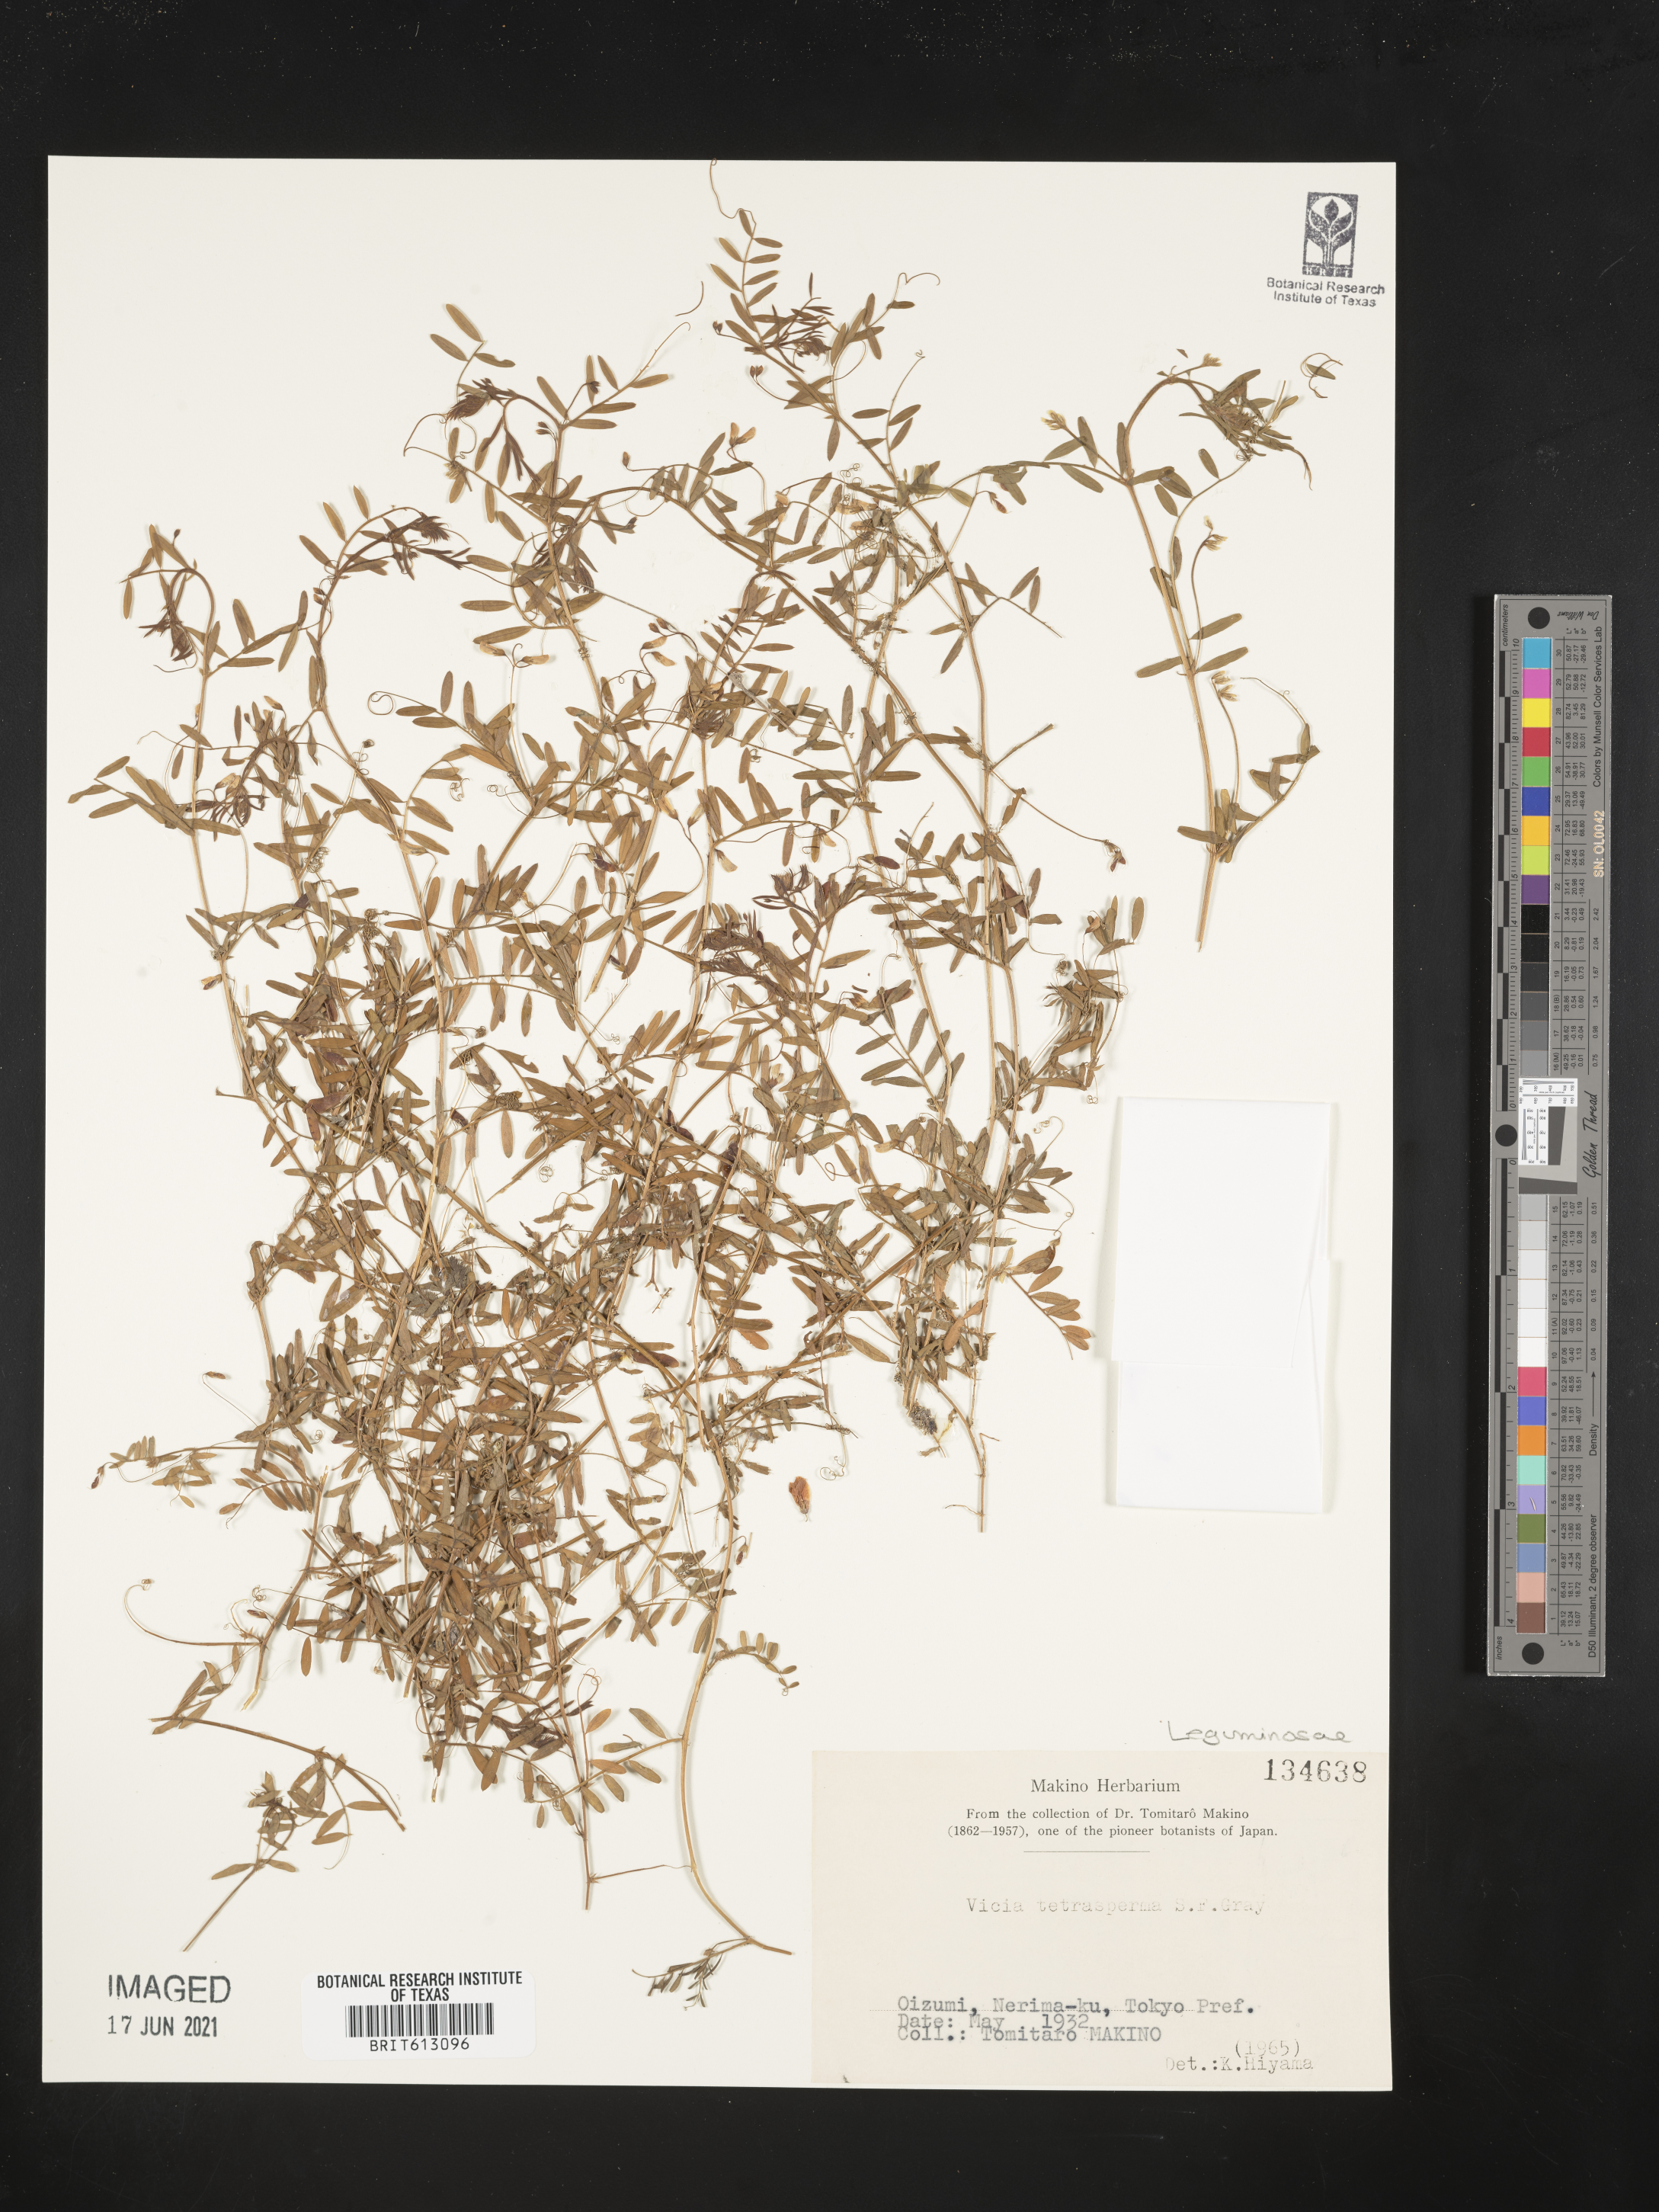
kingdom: Plantae
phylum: Tracheophyta
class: Magnoliopsida
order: Fabales
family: Fabaceae
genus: Vicia
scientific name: Vicia tetrasperma
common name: Smooth tare
